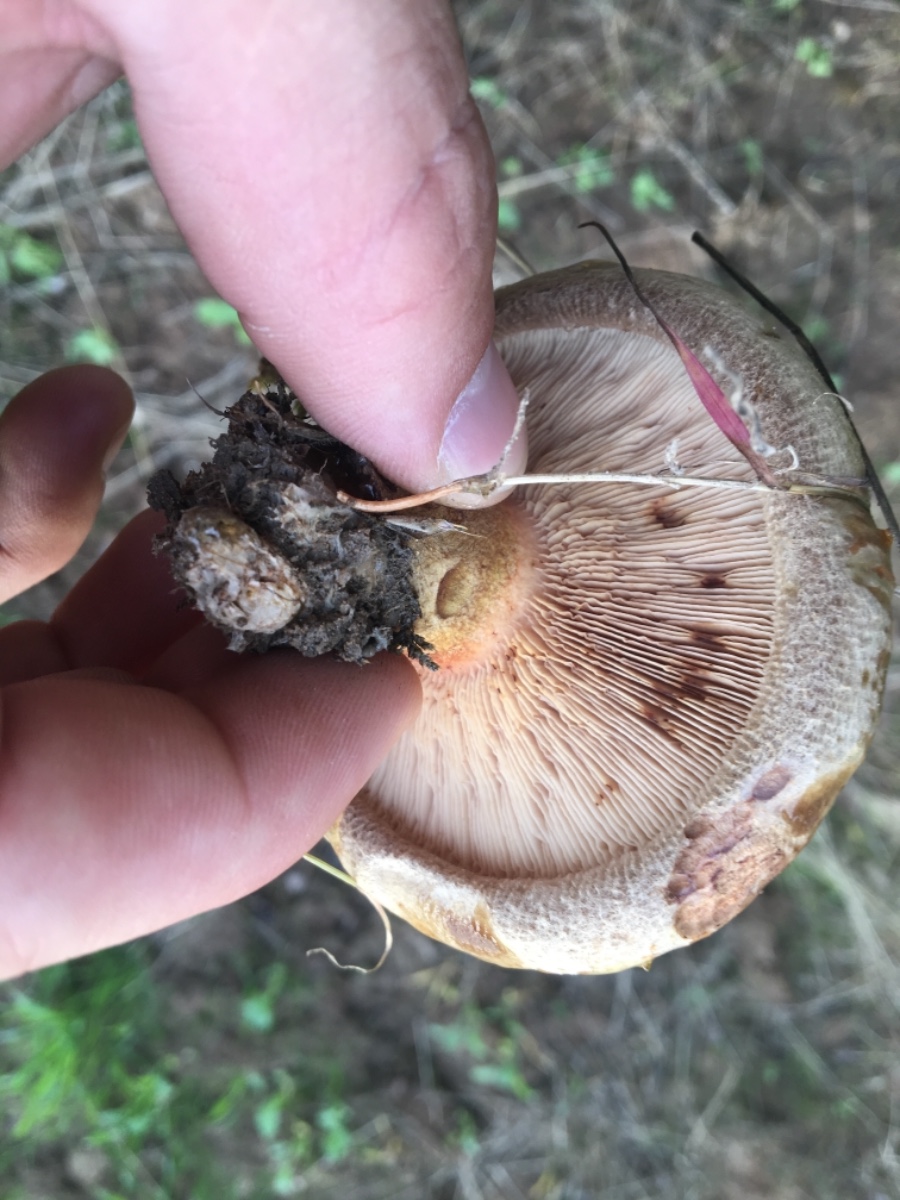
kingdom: Fungi
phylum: Basidiomycota
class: Agaricomycetes
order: Boletales
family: Paxillaceae
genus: Paxillus
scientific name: Paxillus involutus
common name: almindelig netbladhat
